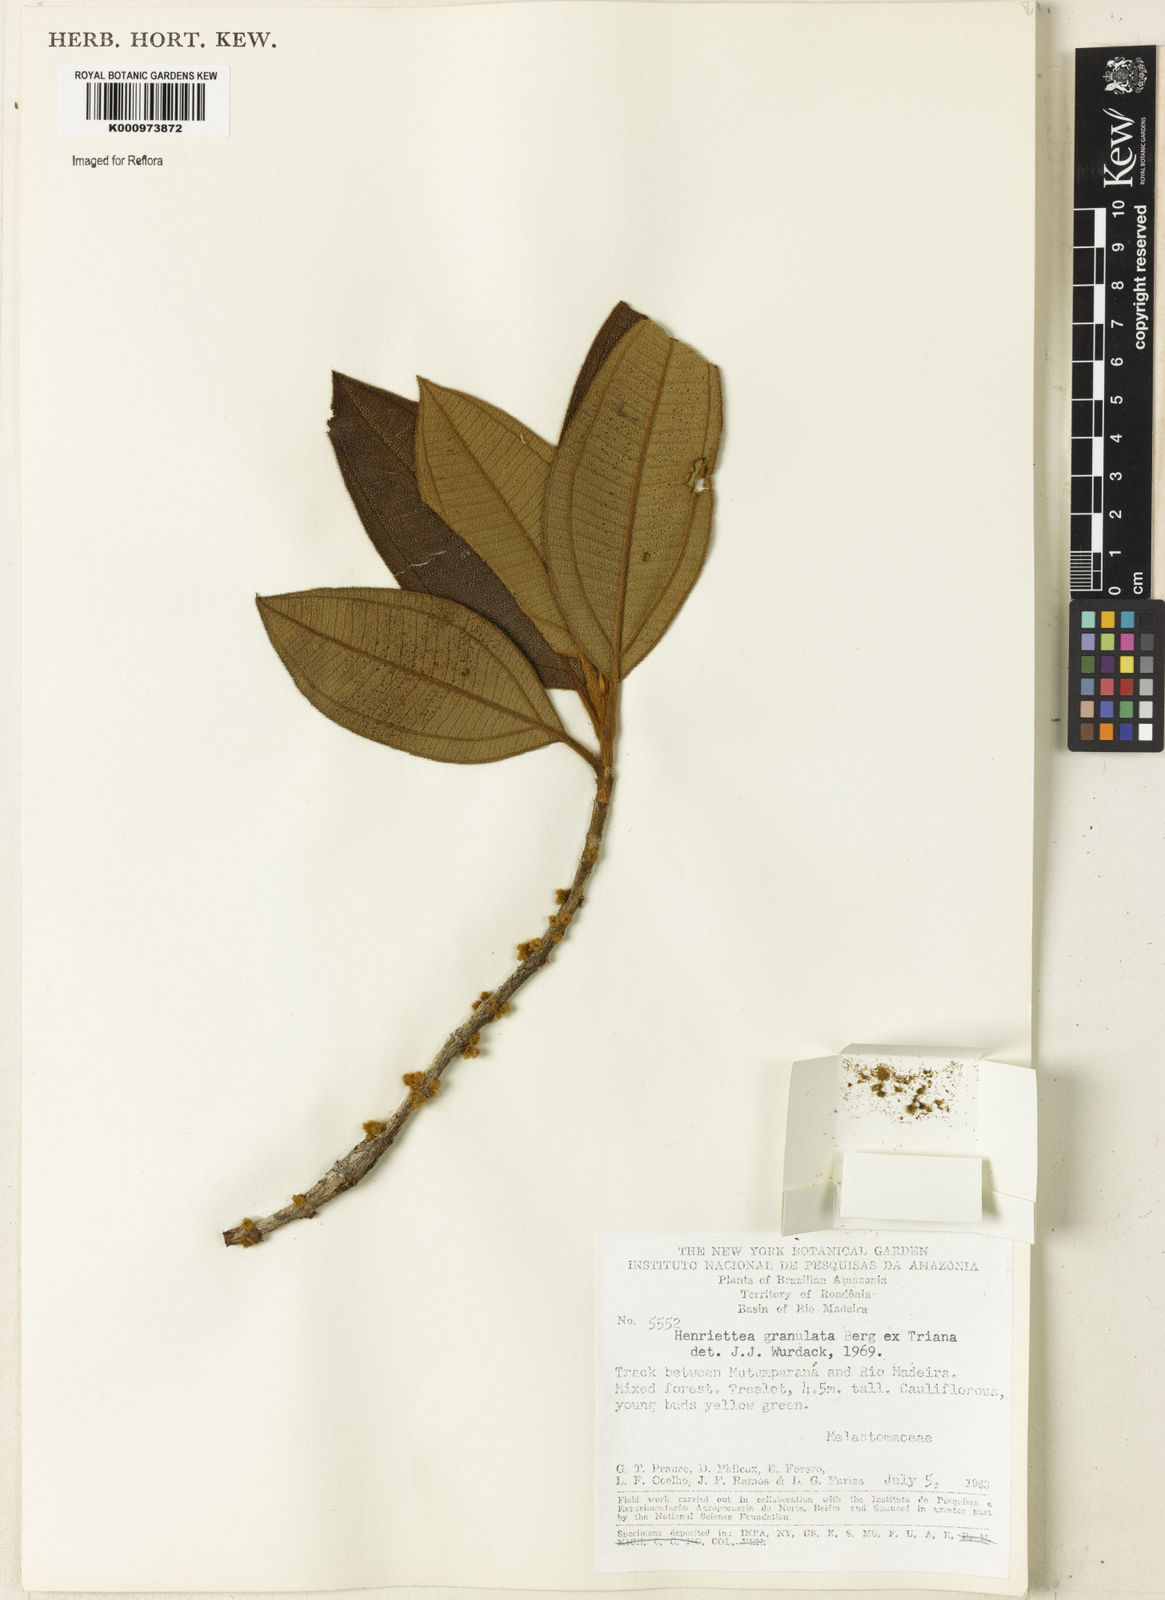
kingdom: Plantae
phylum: Tracheophyta
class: Magnoliopsida
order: Myrtales
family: Melastomataceae
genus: Henriettea
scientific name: Henriettea granulata
